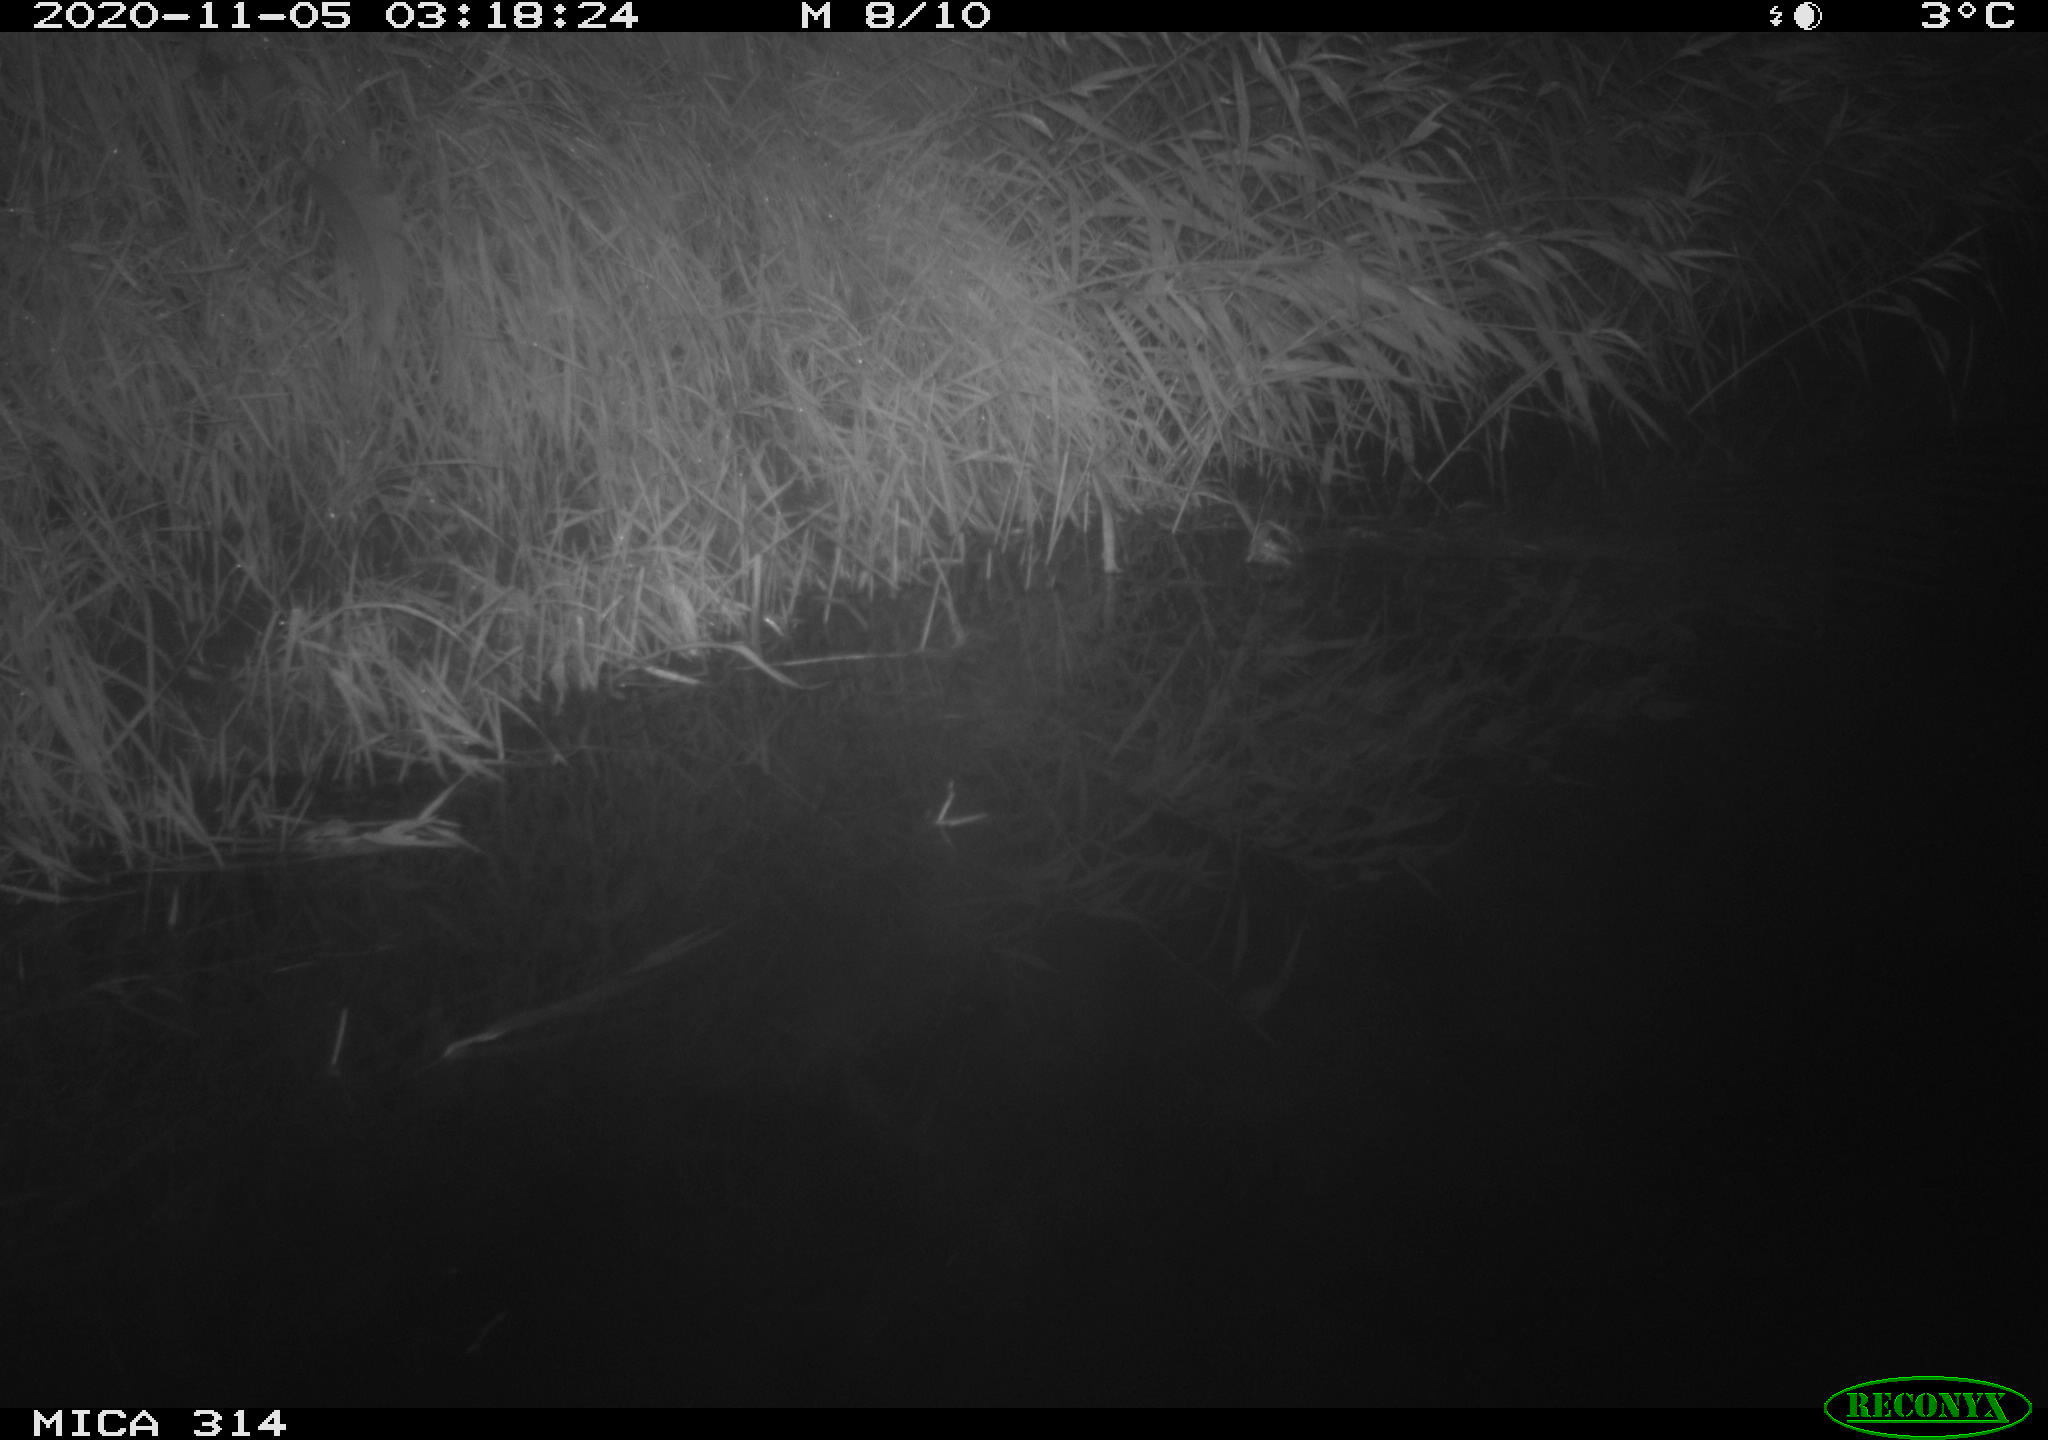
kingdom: Animalia
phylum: Chordata
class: Mammalia
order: Rodentia
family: Muridae
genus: Rattus
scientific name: Rattus norvegicus
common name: Brown rat
